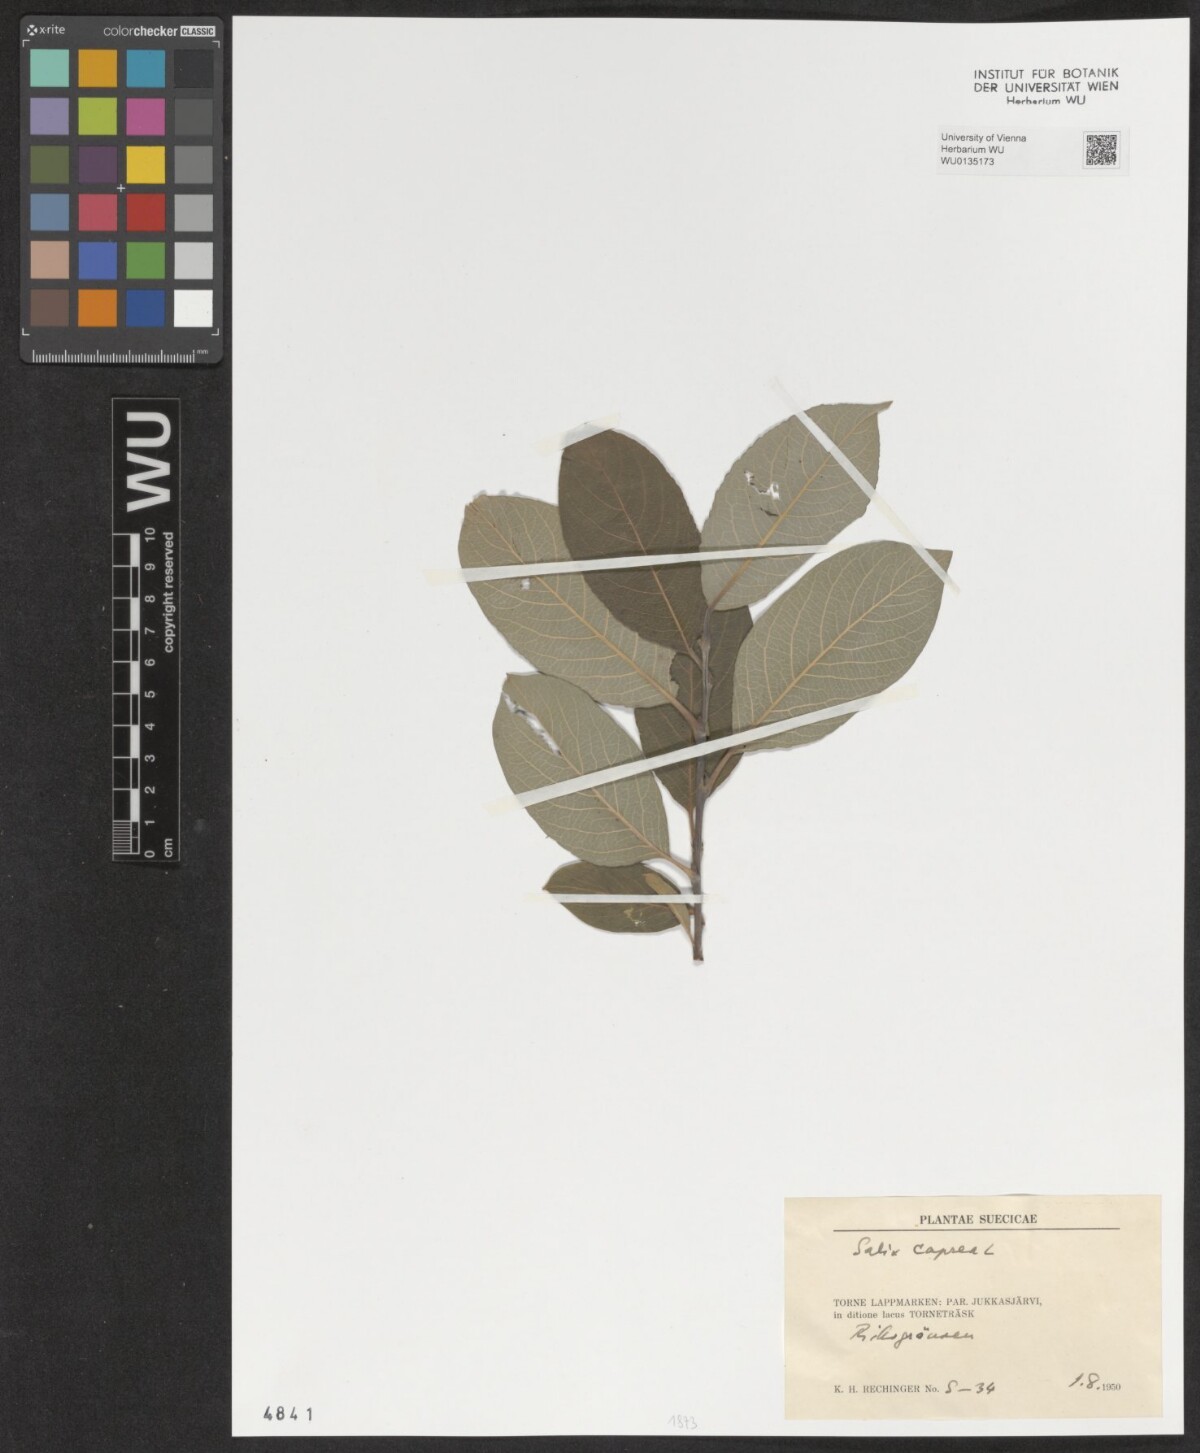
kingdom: Plantae
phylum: Tracheophyta
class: Magnoliopsida
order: Malpighiales
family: Salicaceae
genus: Salix
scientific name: Salix caprea
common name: Goat willow
